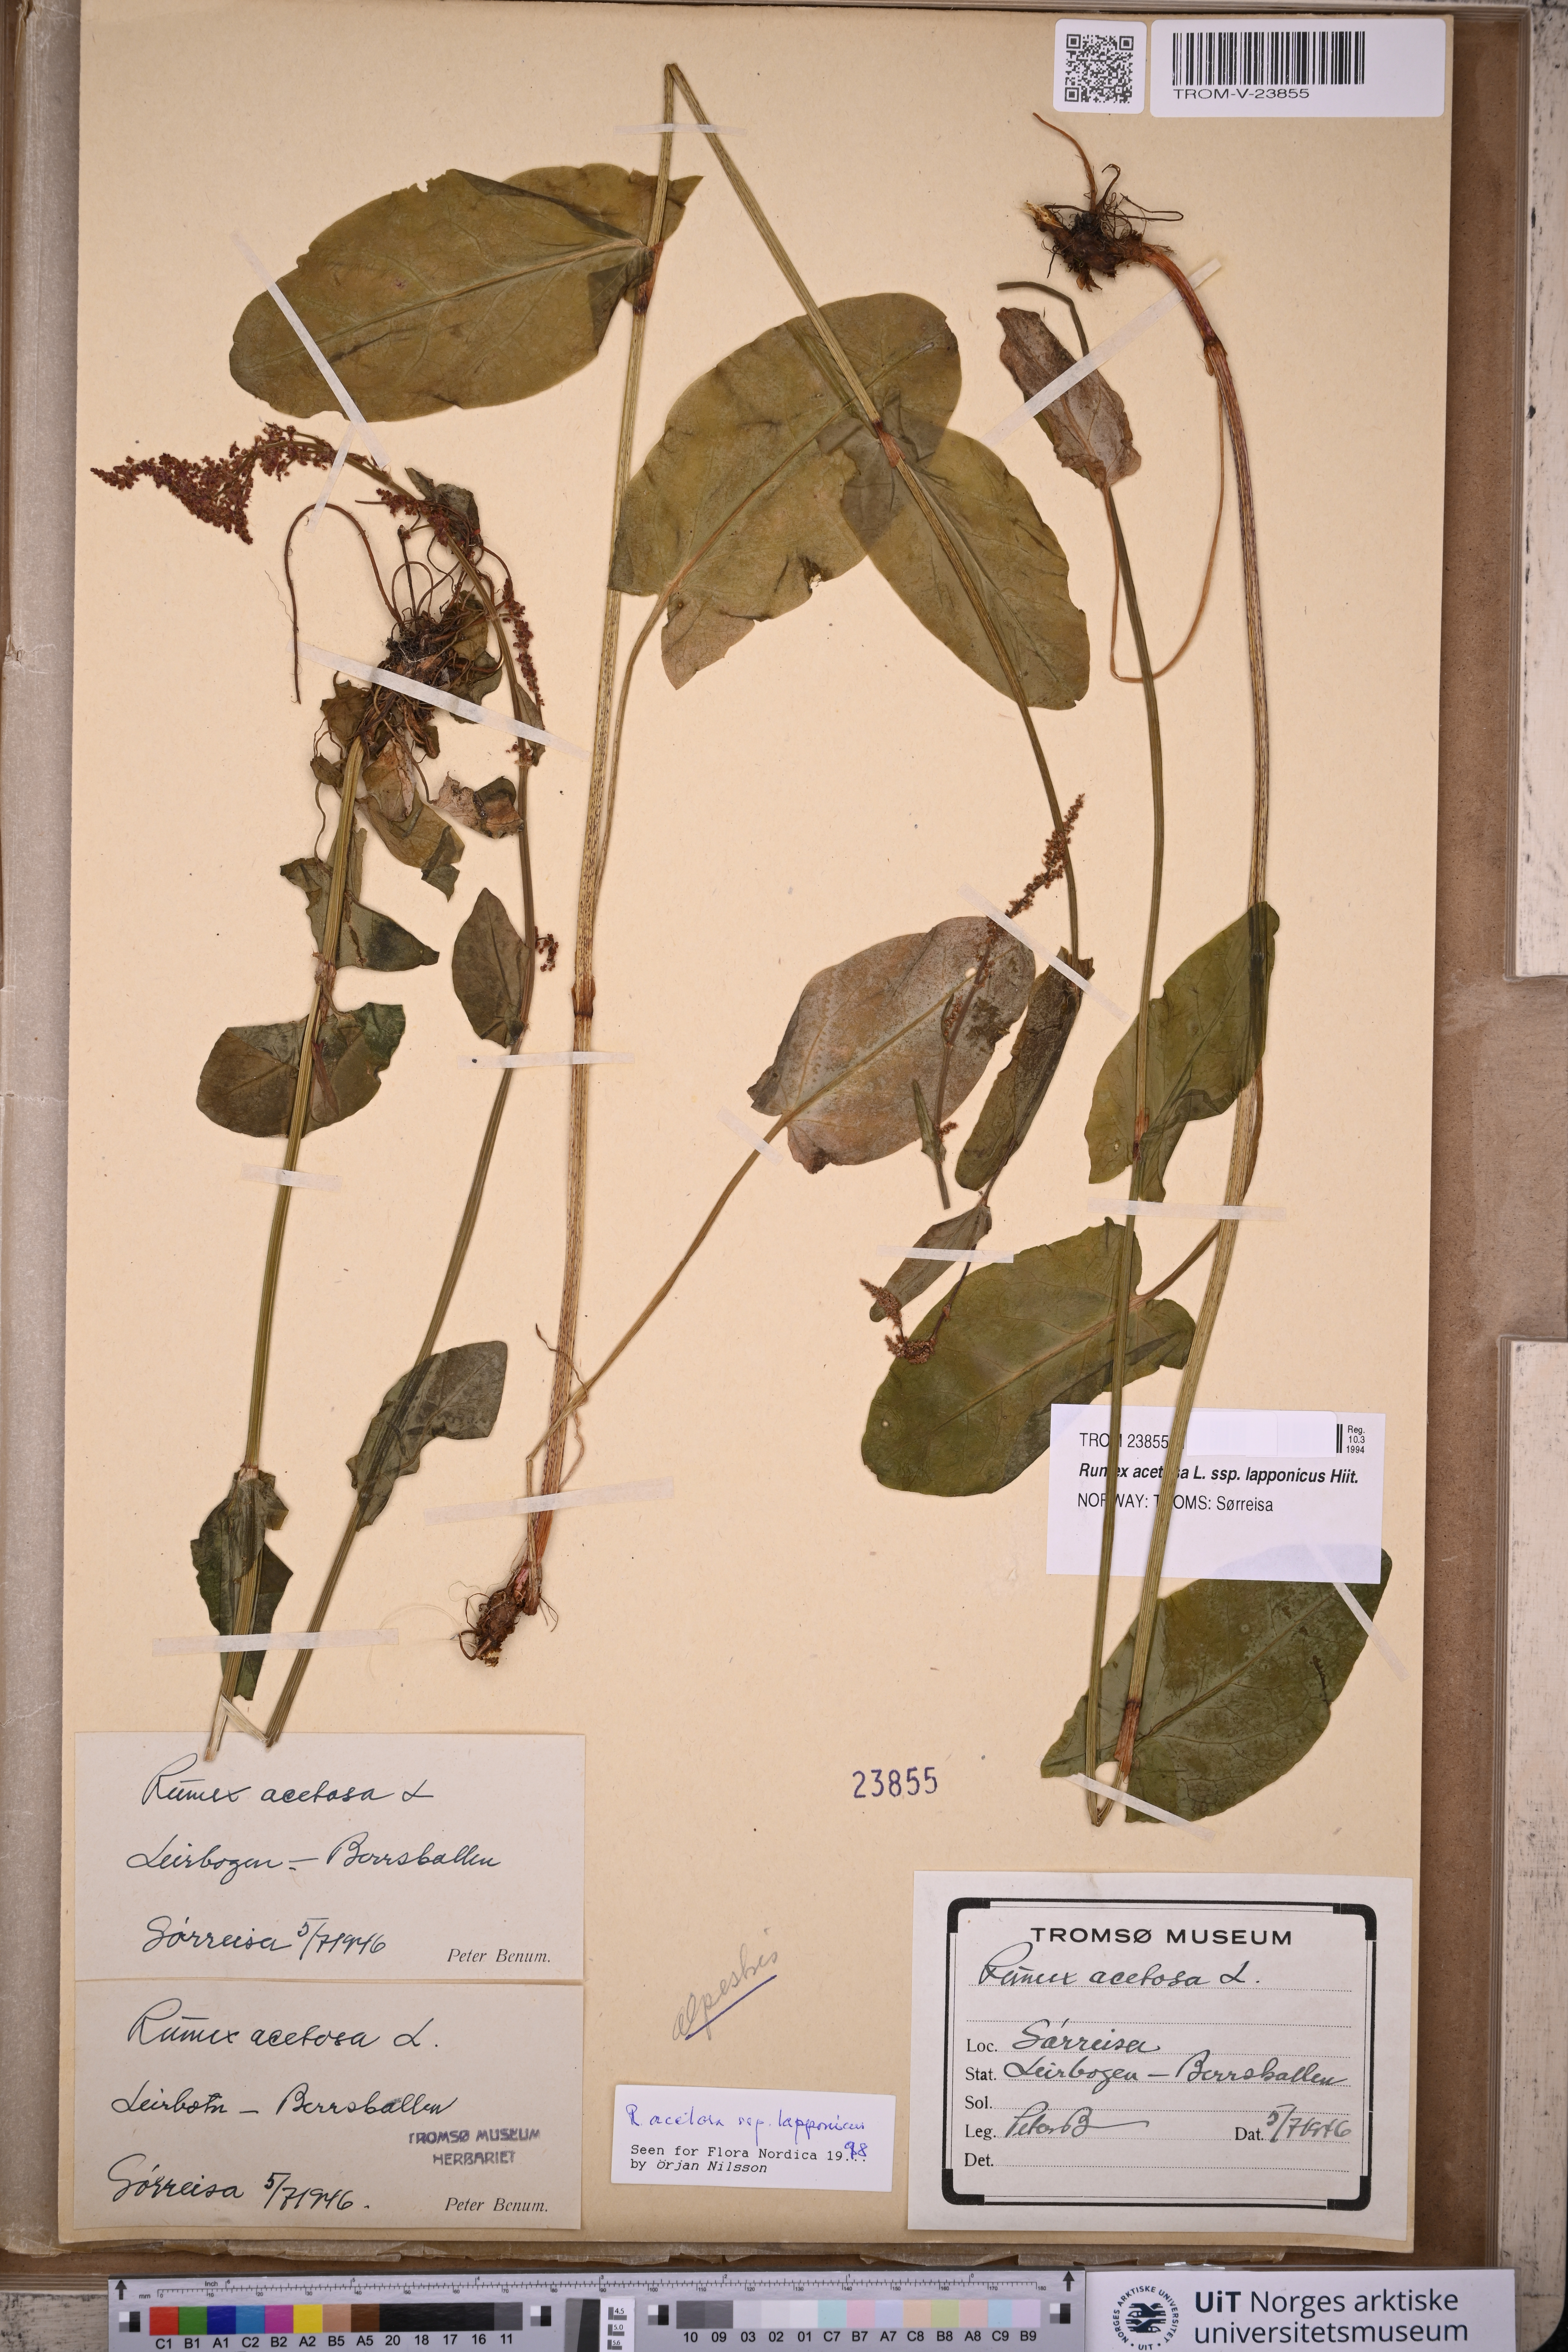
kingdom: Plantae
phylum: Tracheophyta
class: Magnoliopsida
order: Caryophyllales
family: Polygonaceae
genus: Rumex
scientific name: Rumex lapponicus
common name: Lapland mountain sorrel
